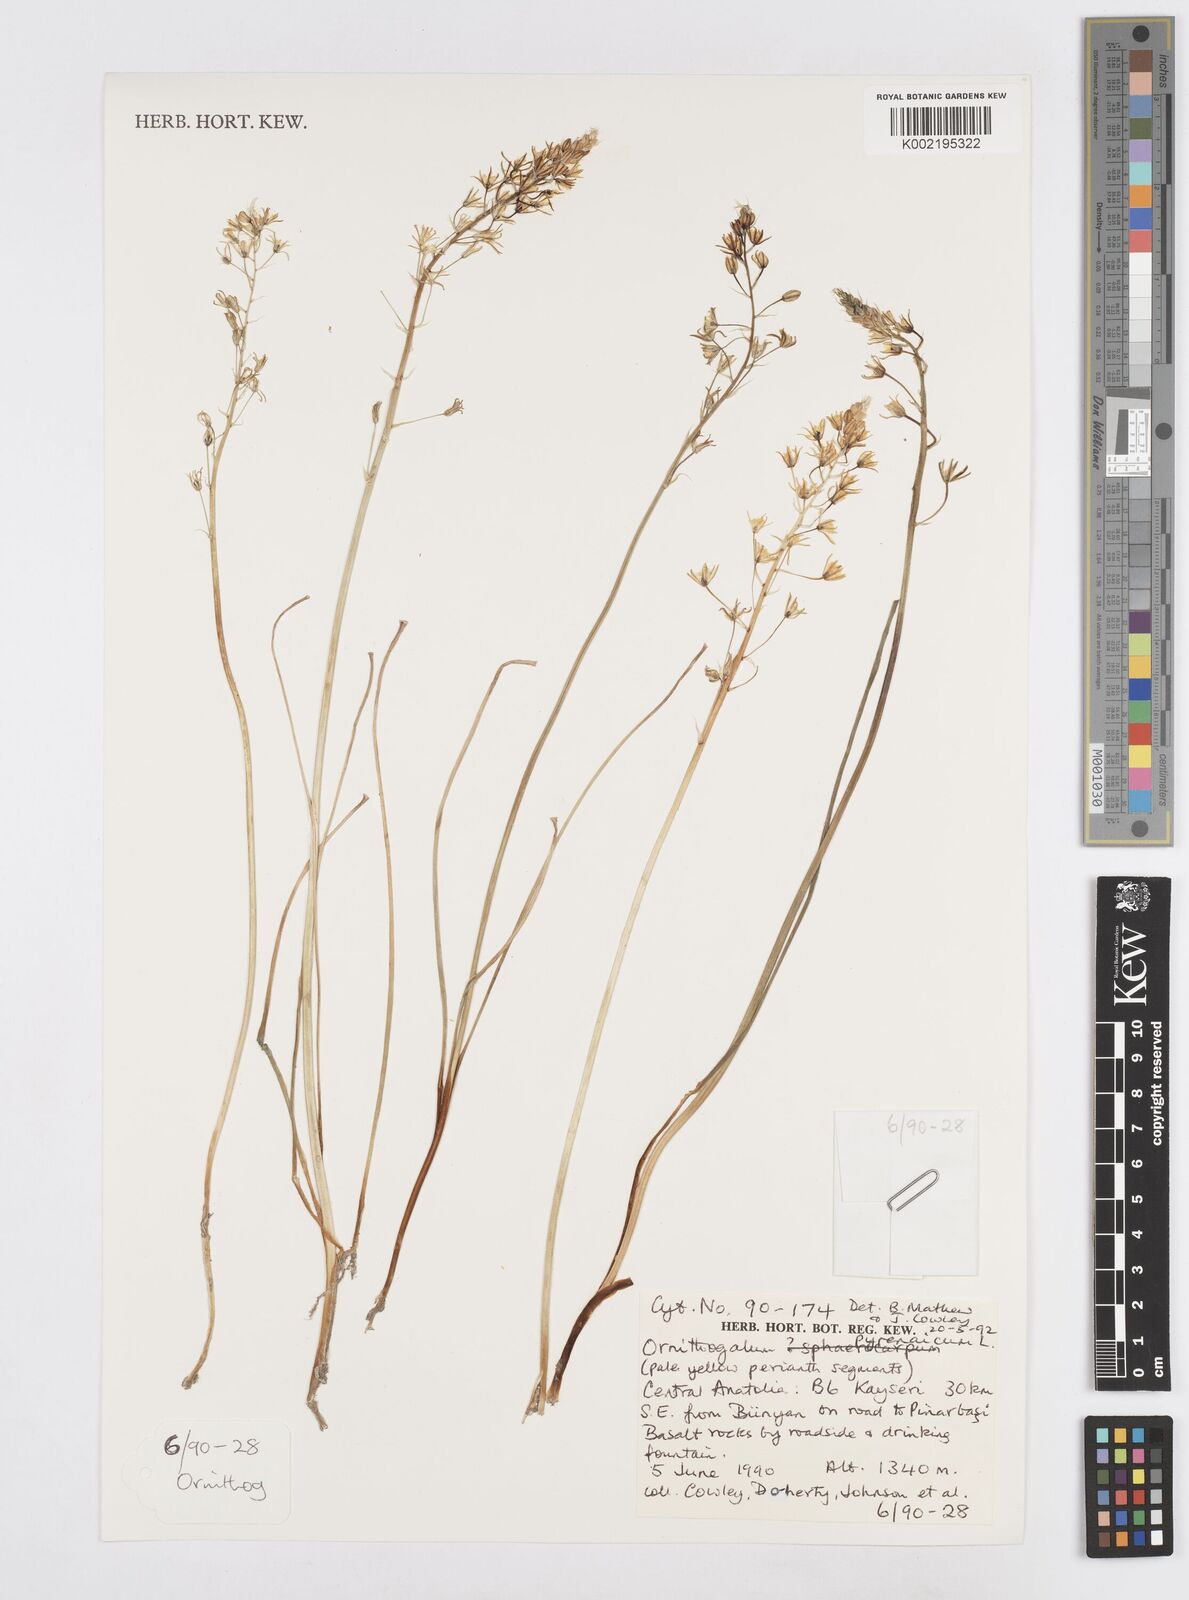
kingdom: Plantae
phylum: Tracheophyta
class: Liliopsida
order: Asparagales
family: Asparagaceae
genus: Ornithogalum
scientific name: Ornithogalum pyrenaicum
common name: Spiked star-of-bethlehem
